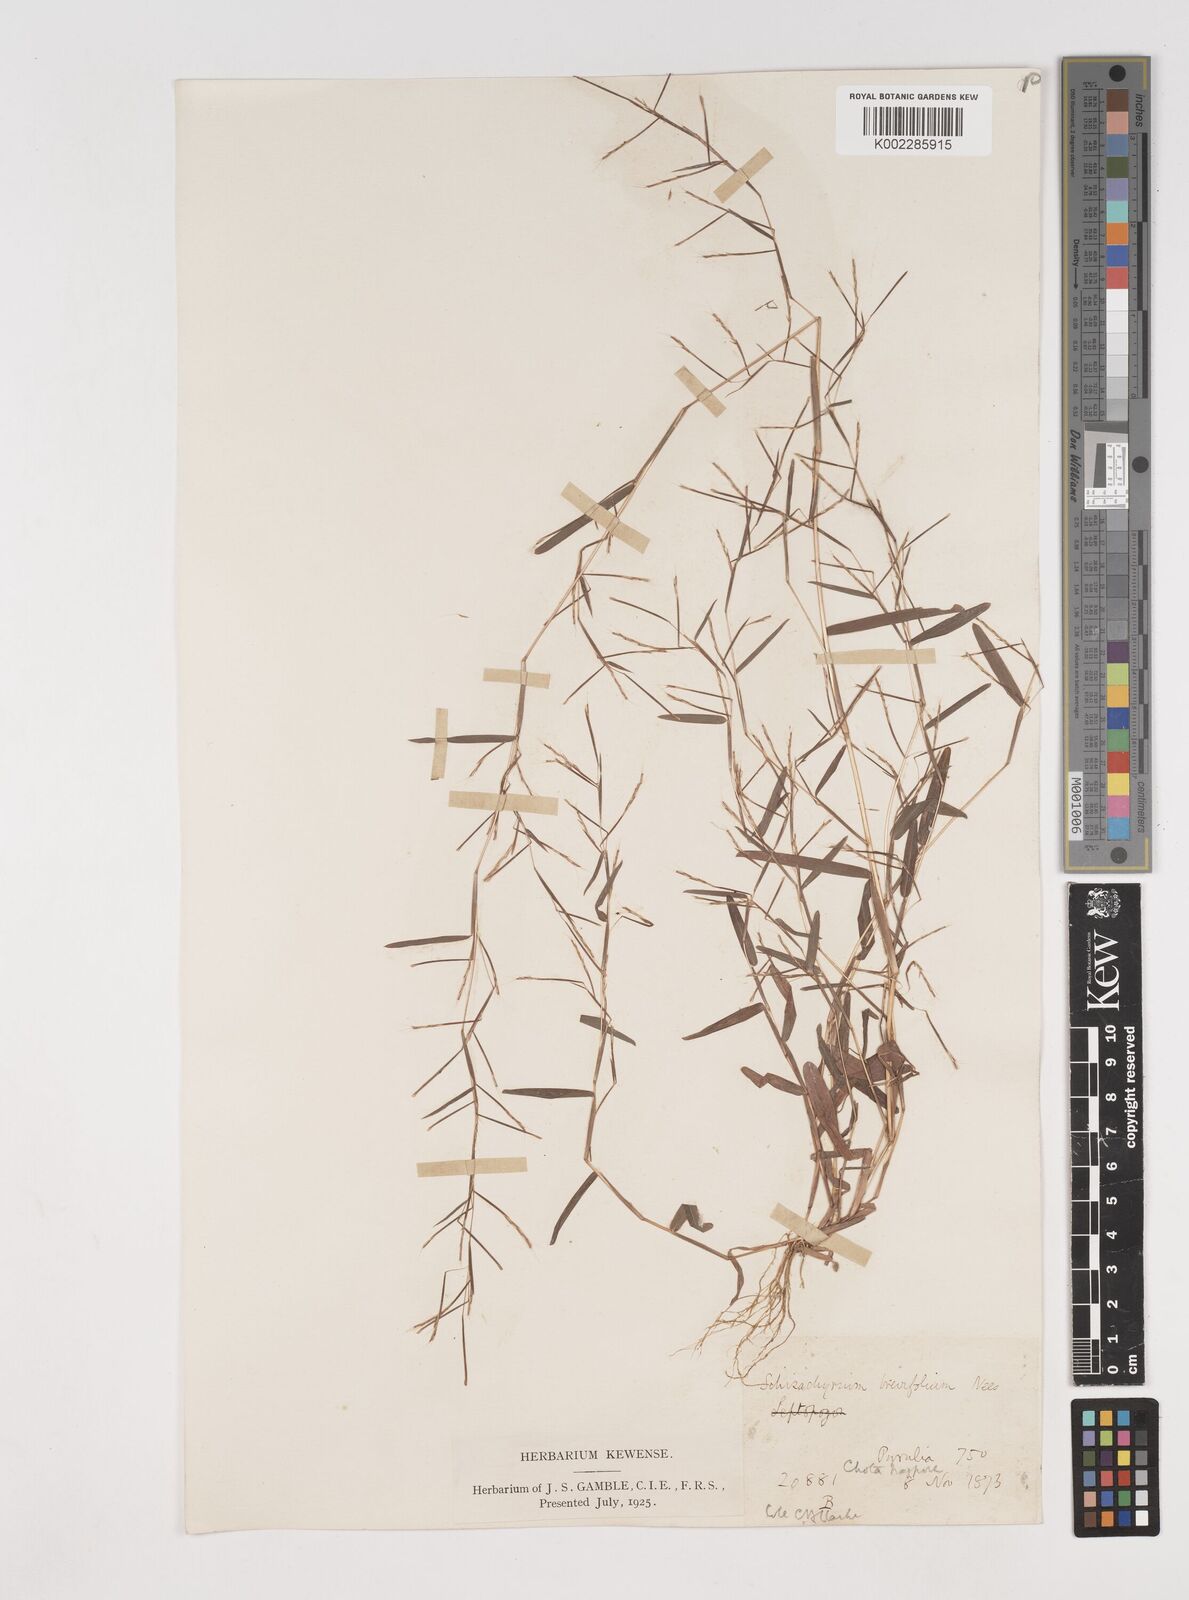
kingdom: Plantae
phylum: Tracheophyta
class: Liliopsida
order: Poales
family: Poaceae
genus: Schizachyrium
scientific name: Schizachyrium brevifolium
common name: Serillo dulce
